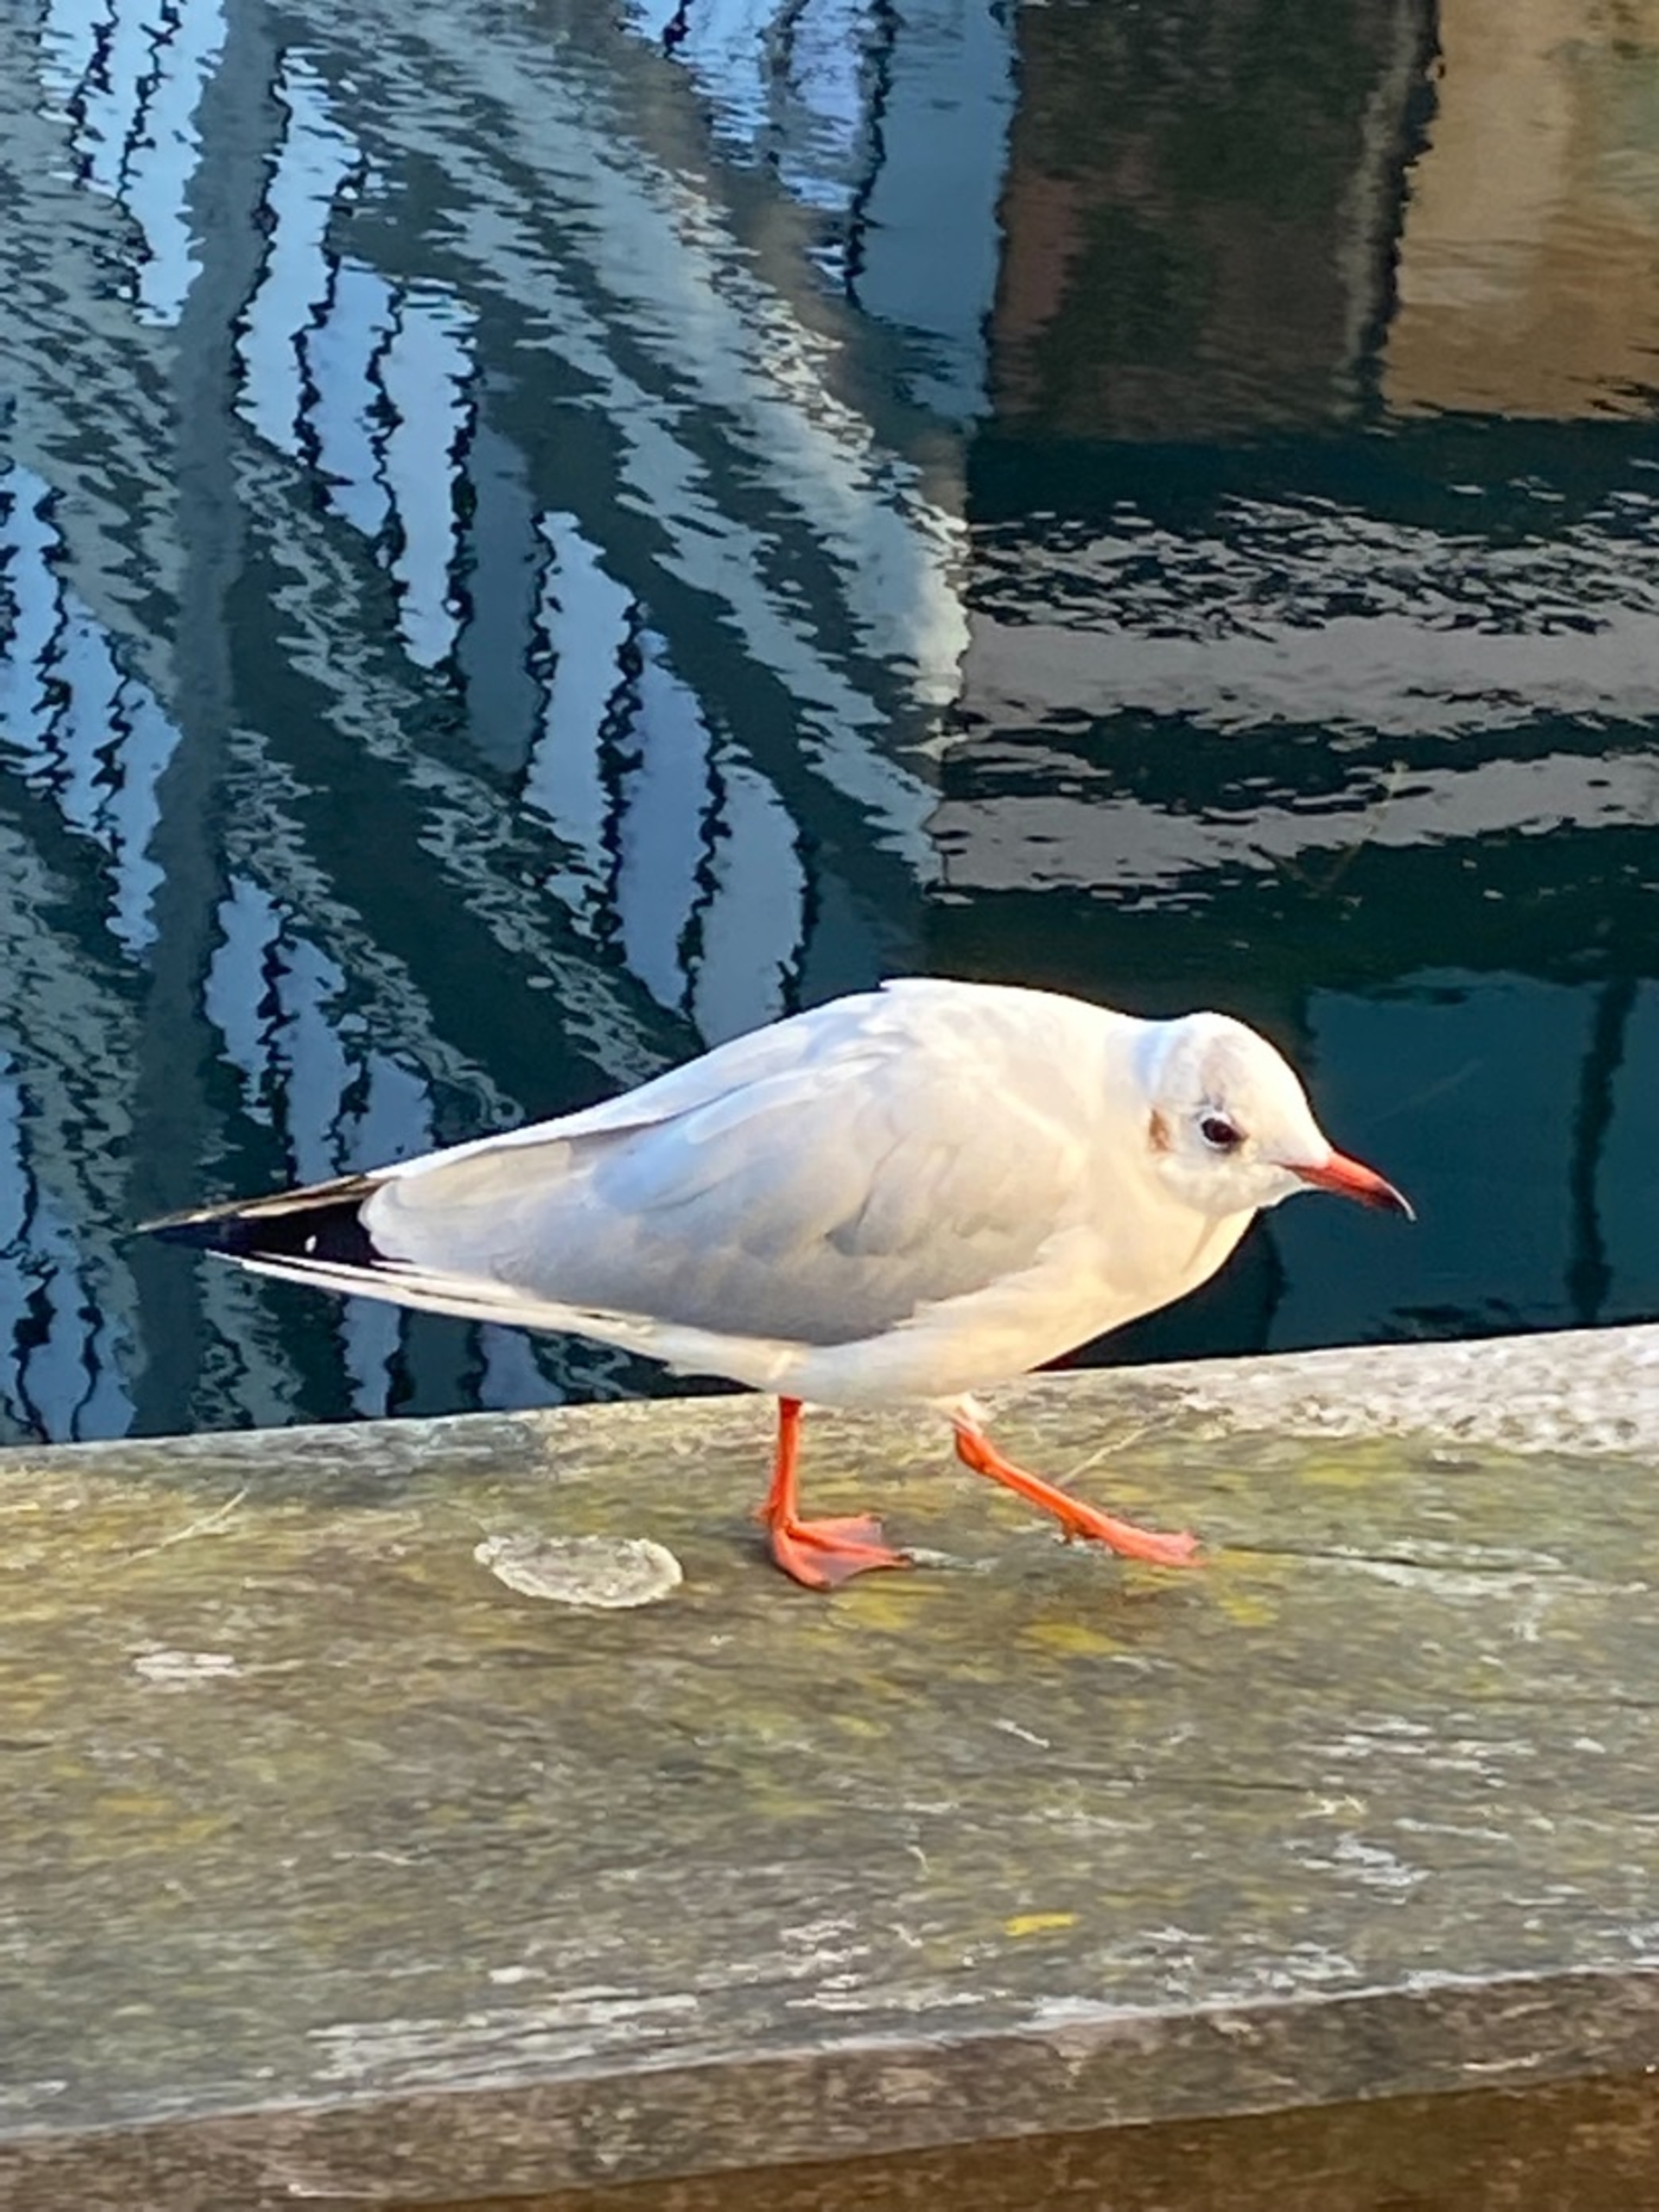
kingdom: Animalia
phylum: Chordata
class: Aves
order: Charadriiformes
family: Laridae
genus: Chroicocephalus
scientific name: Chroicocephalus ridibundus
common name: Hættemåge
